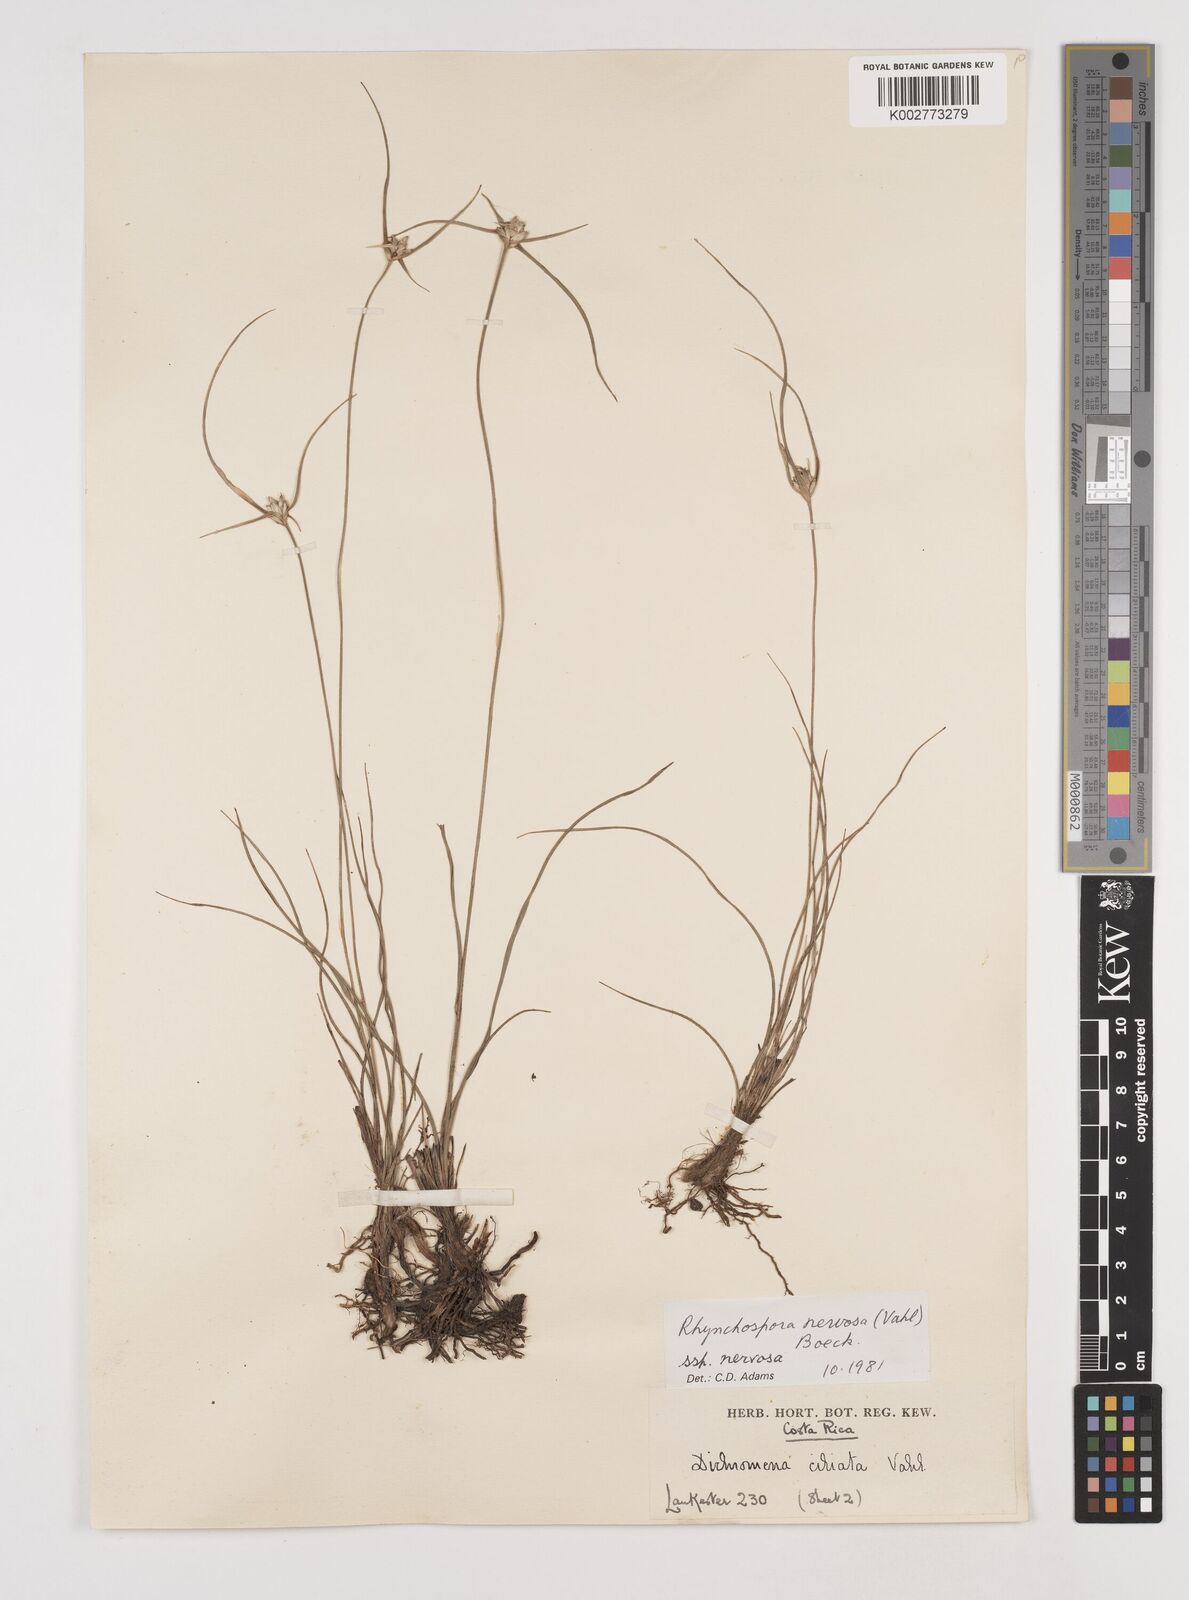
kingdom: Plantae
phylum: Tracheophyta
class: Liliopsida
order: Poales
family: Cyperaceae
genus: Rhynchospora
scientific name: Rhynchospora nervosa
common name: Star sedge
